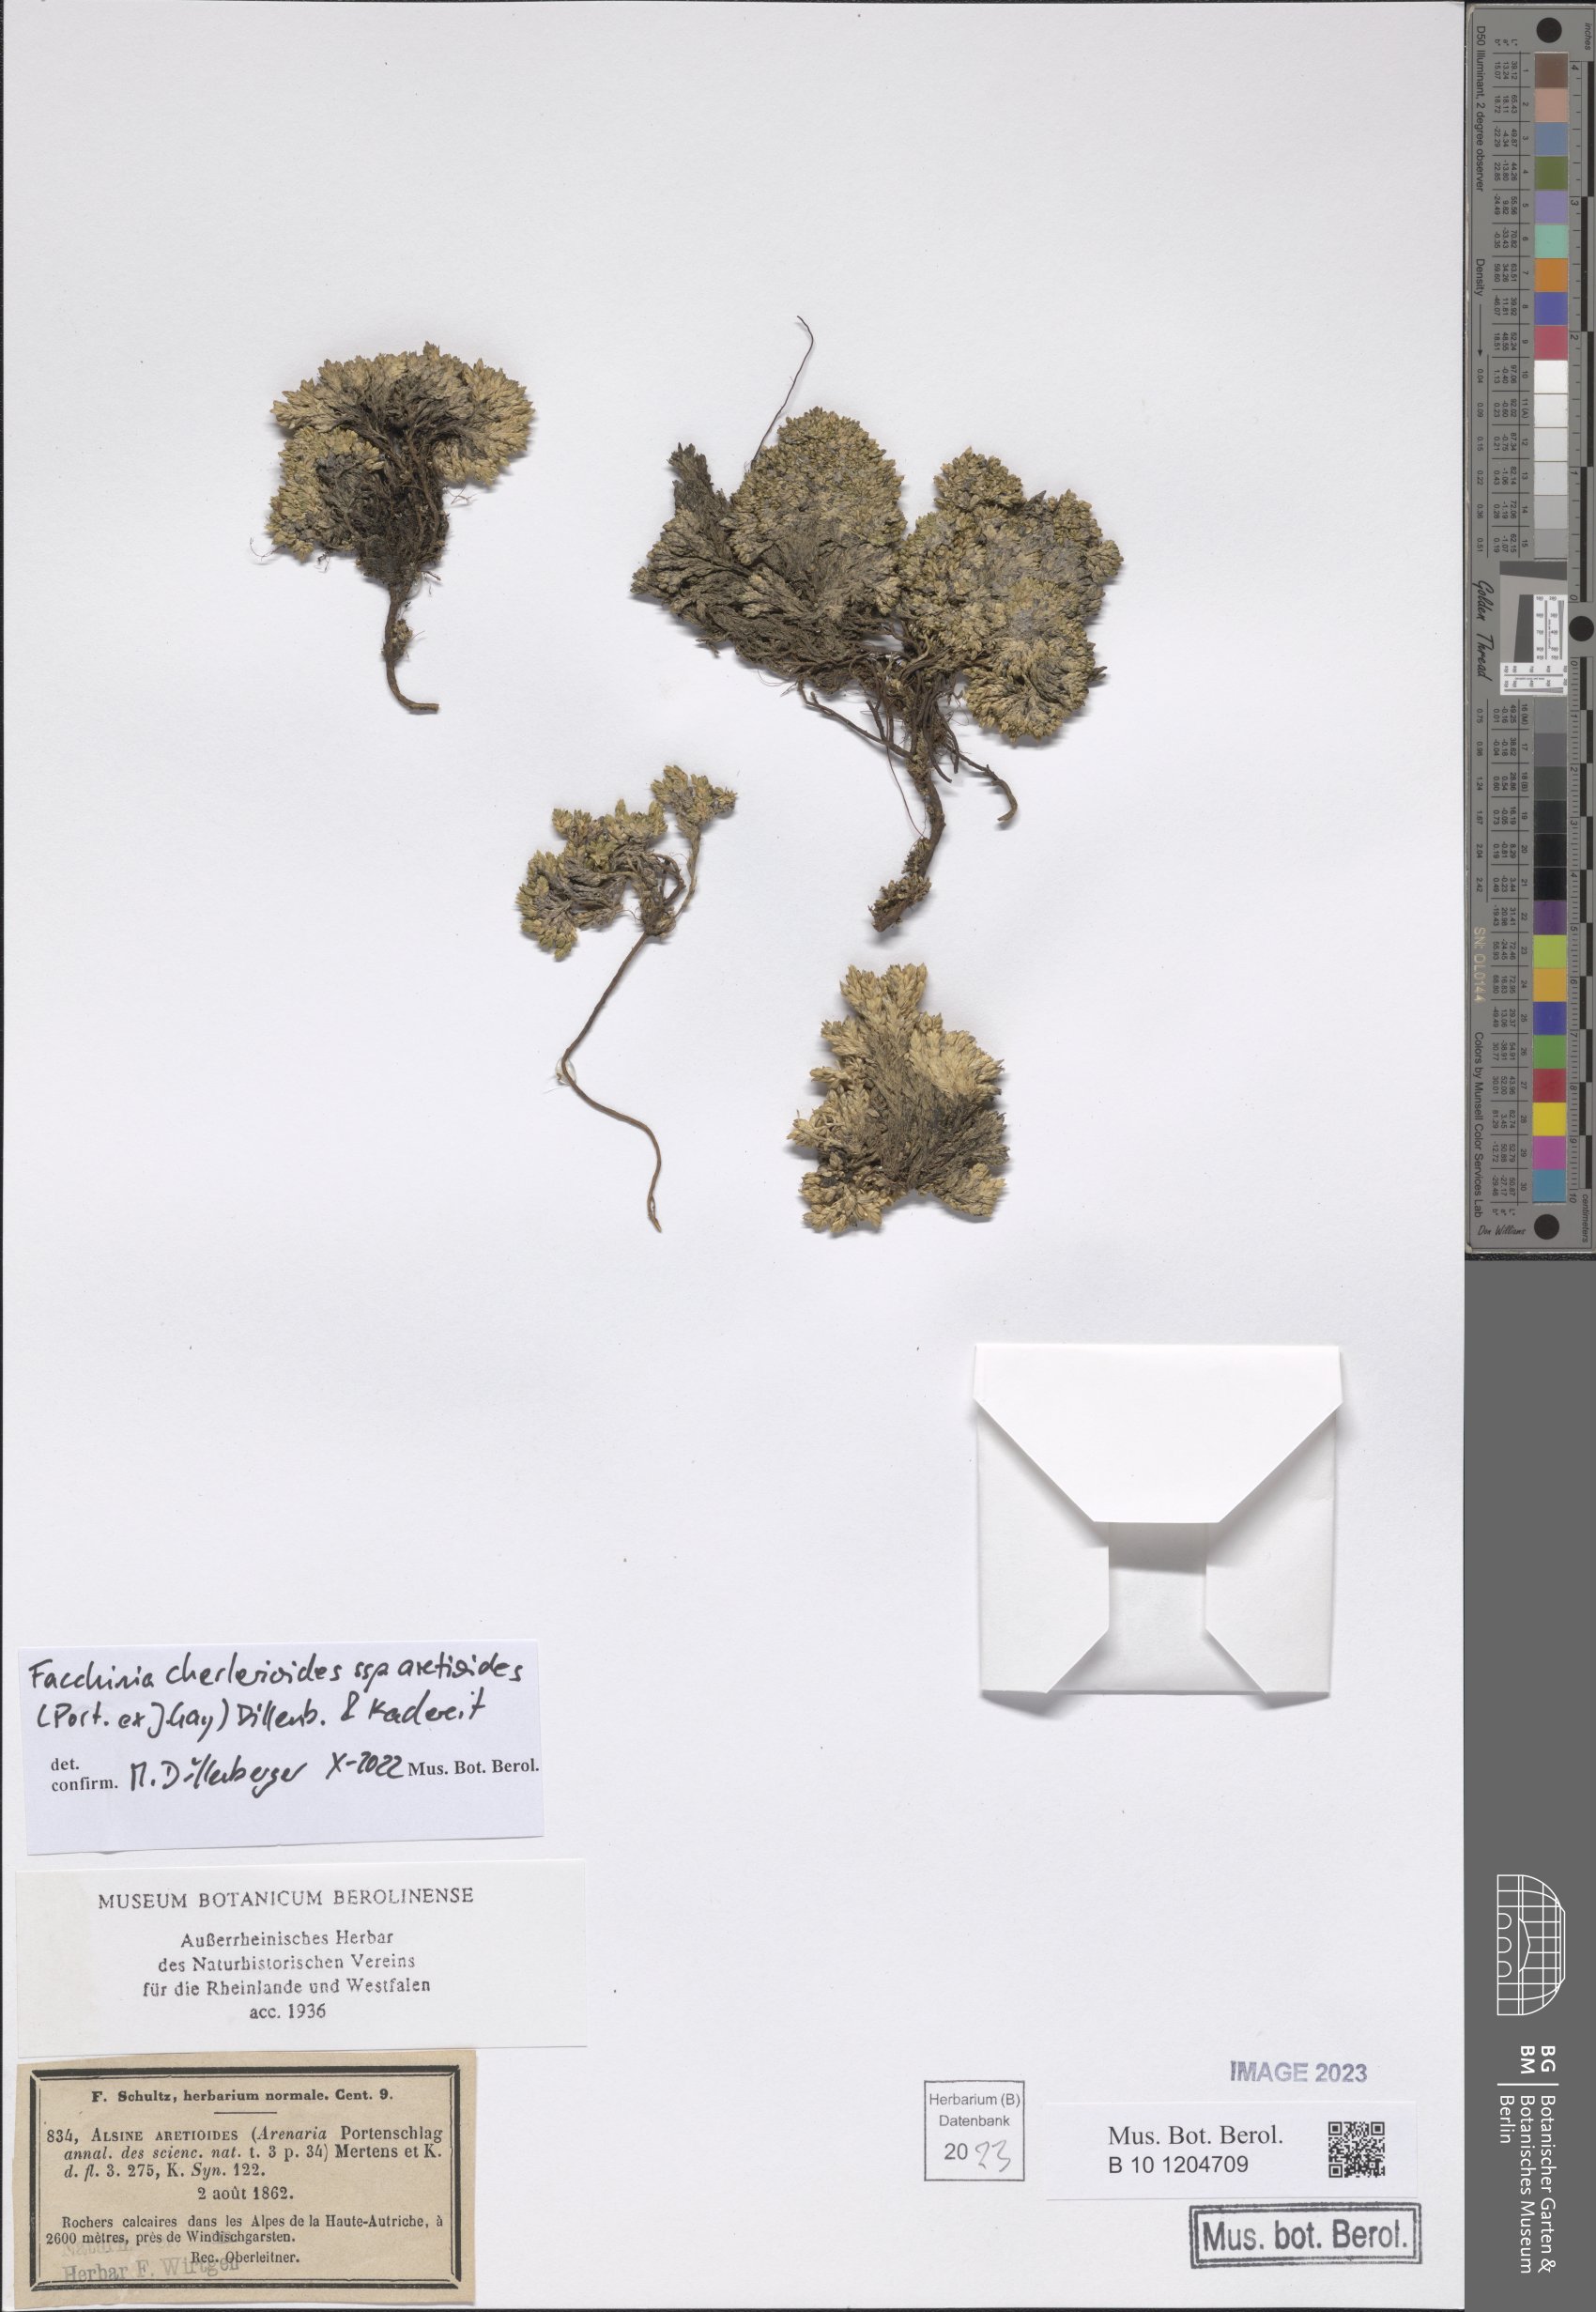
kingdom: Plantae
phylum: Tracheophyta
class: Magnoliopsida
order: Caryophyllales
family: Caryophyllaceae
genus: Facchinia
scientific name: Facchinia cherlerioides
